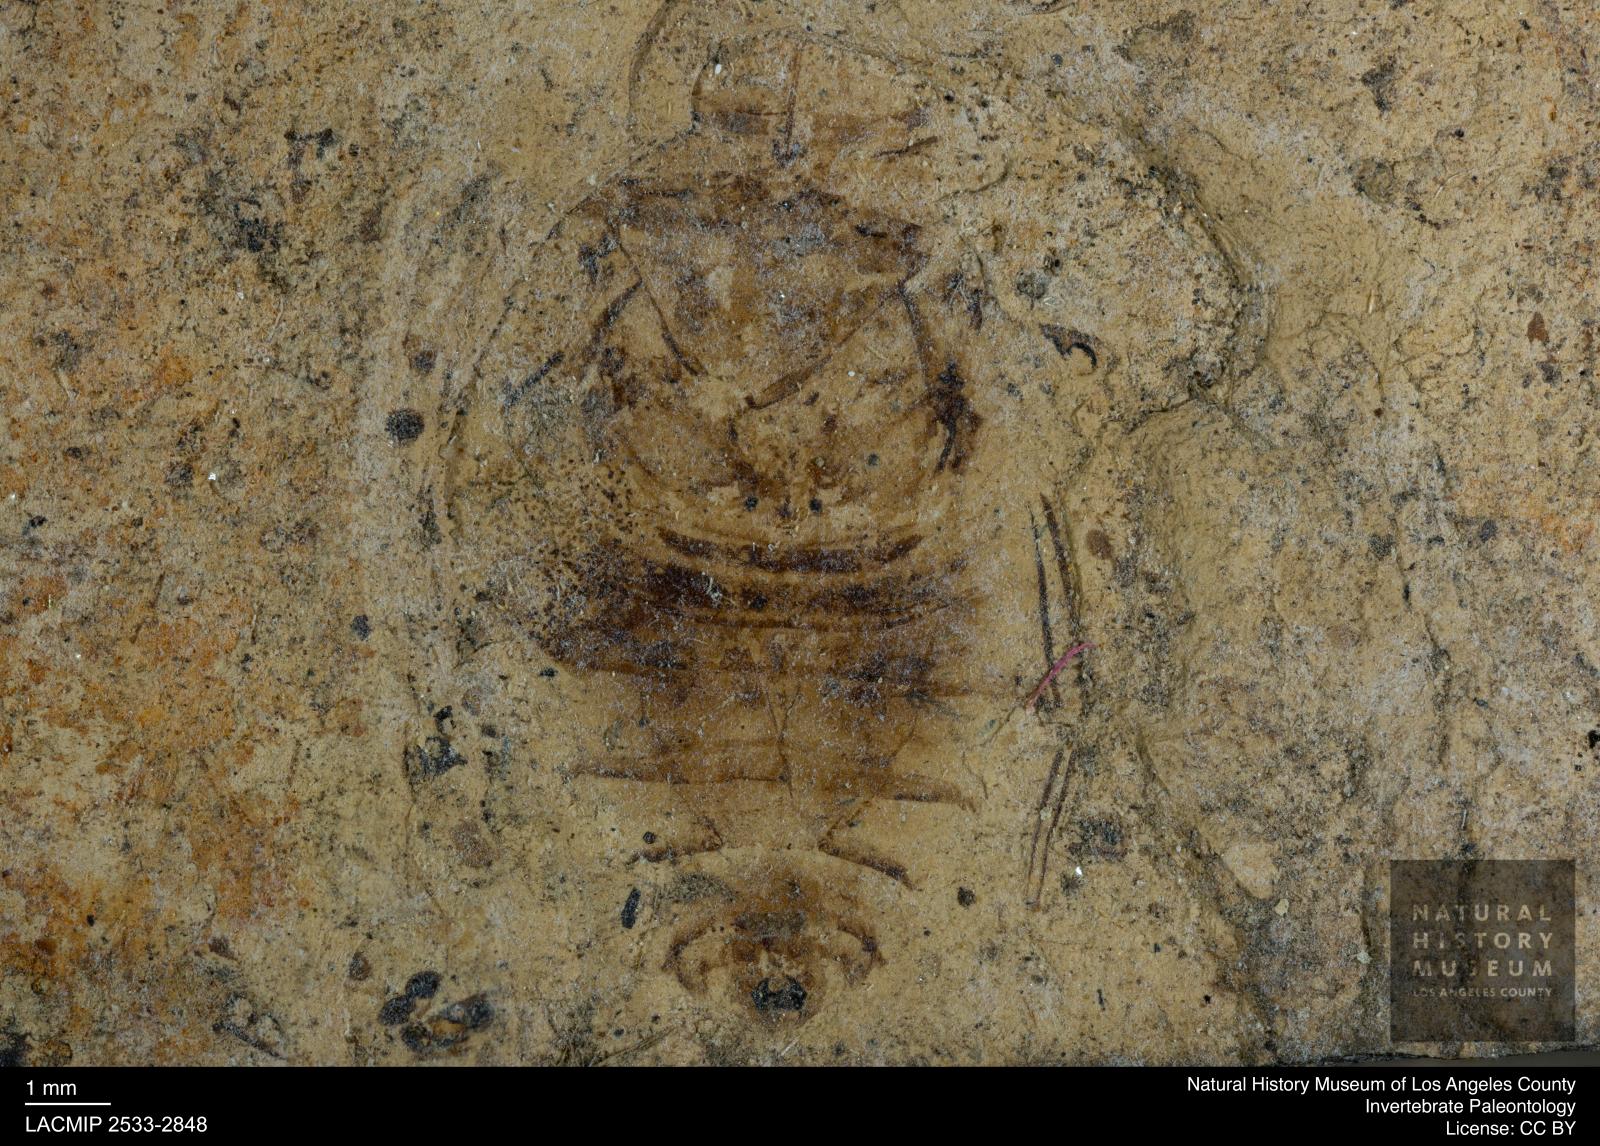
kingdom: Animalia
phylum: Arthropoda
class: Insecta
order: Hemiptera
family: Naucoridae
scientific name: Naucoridae
